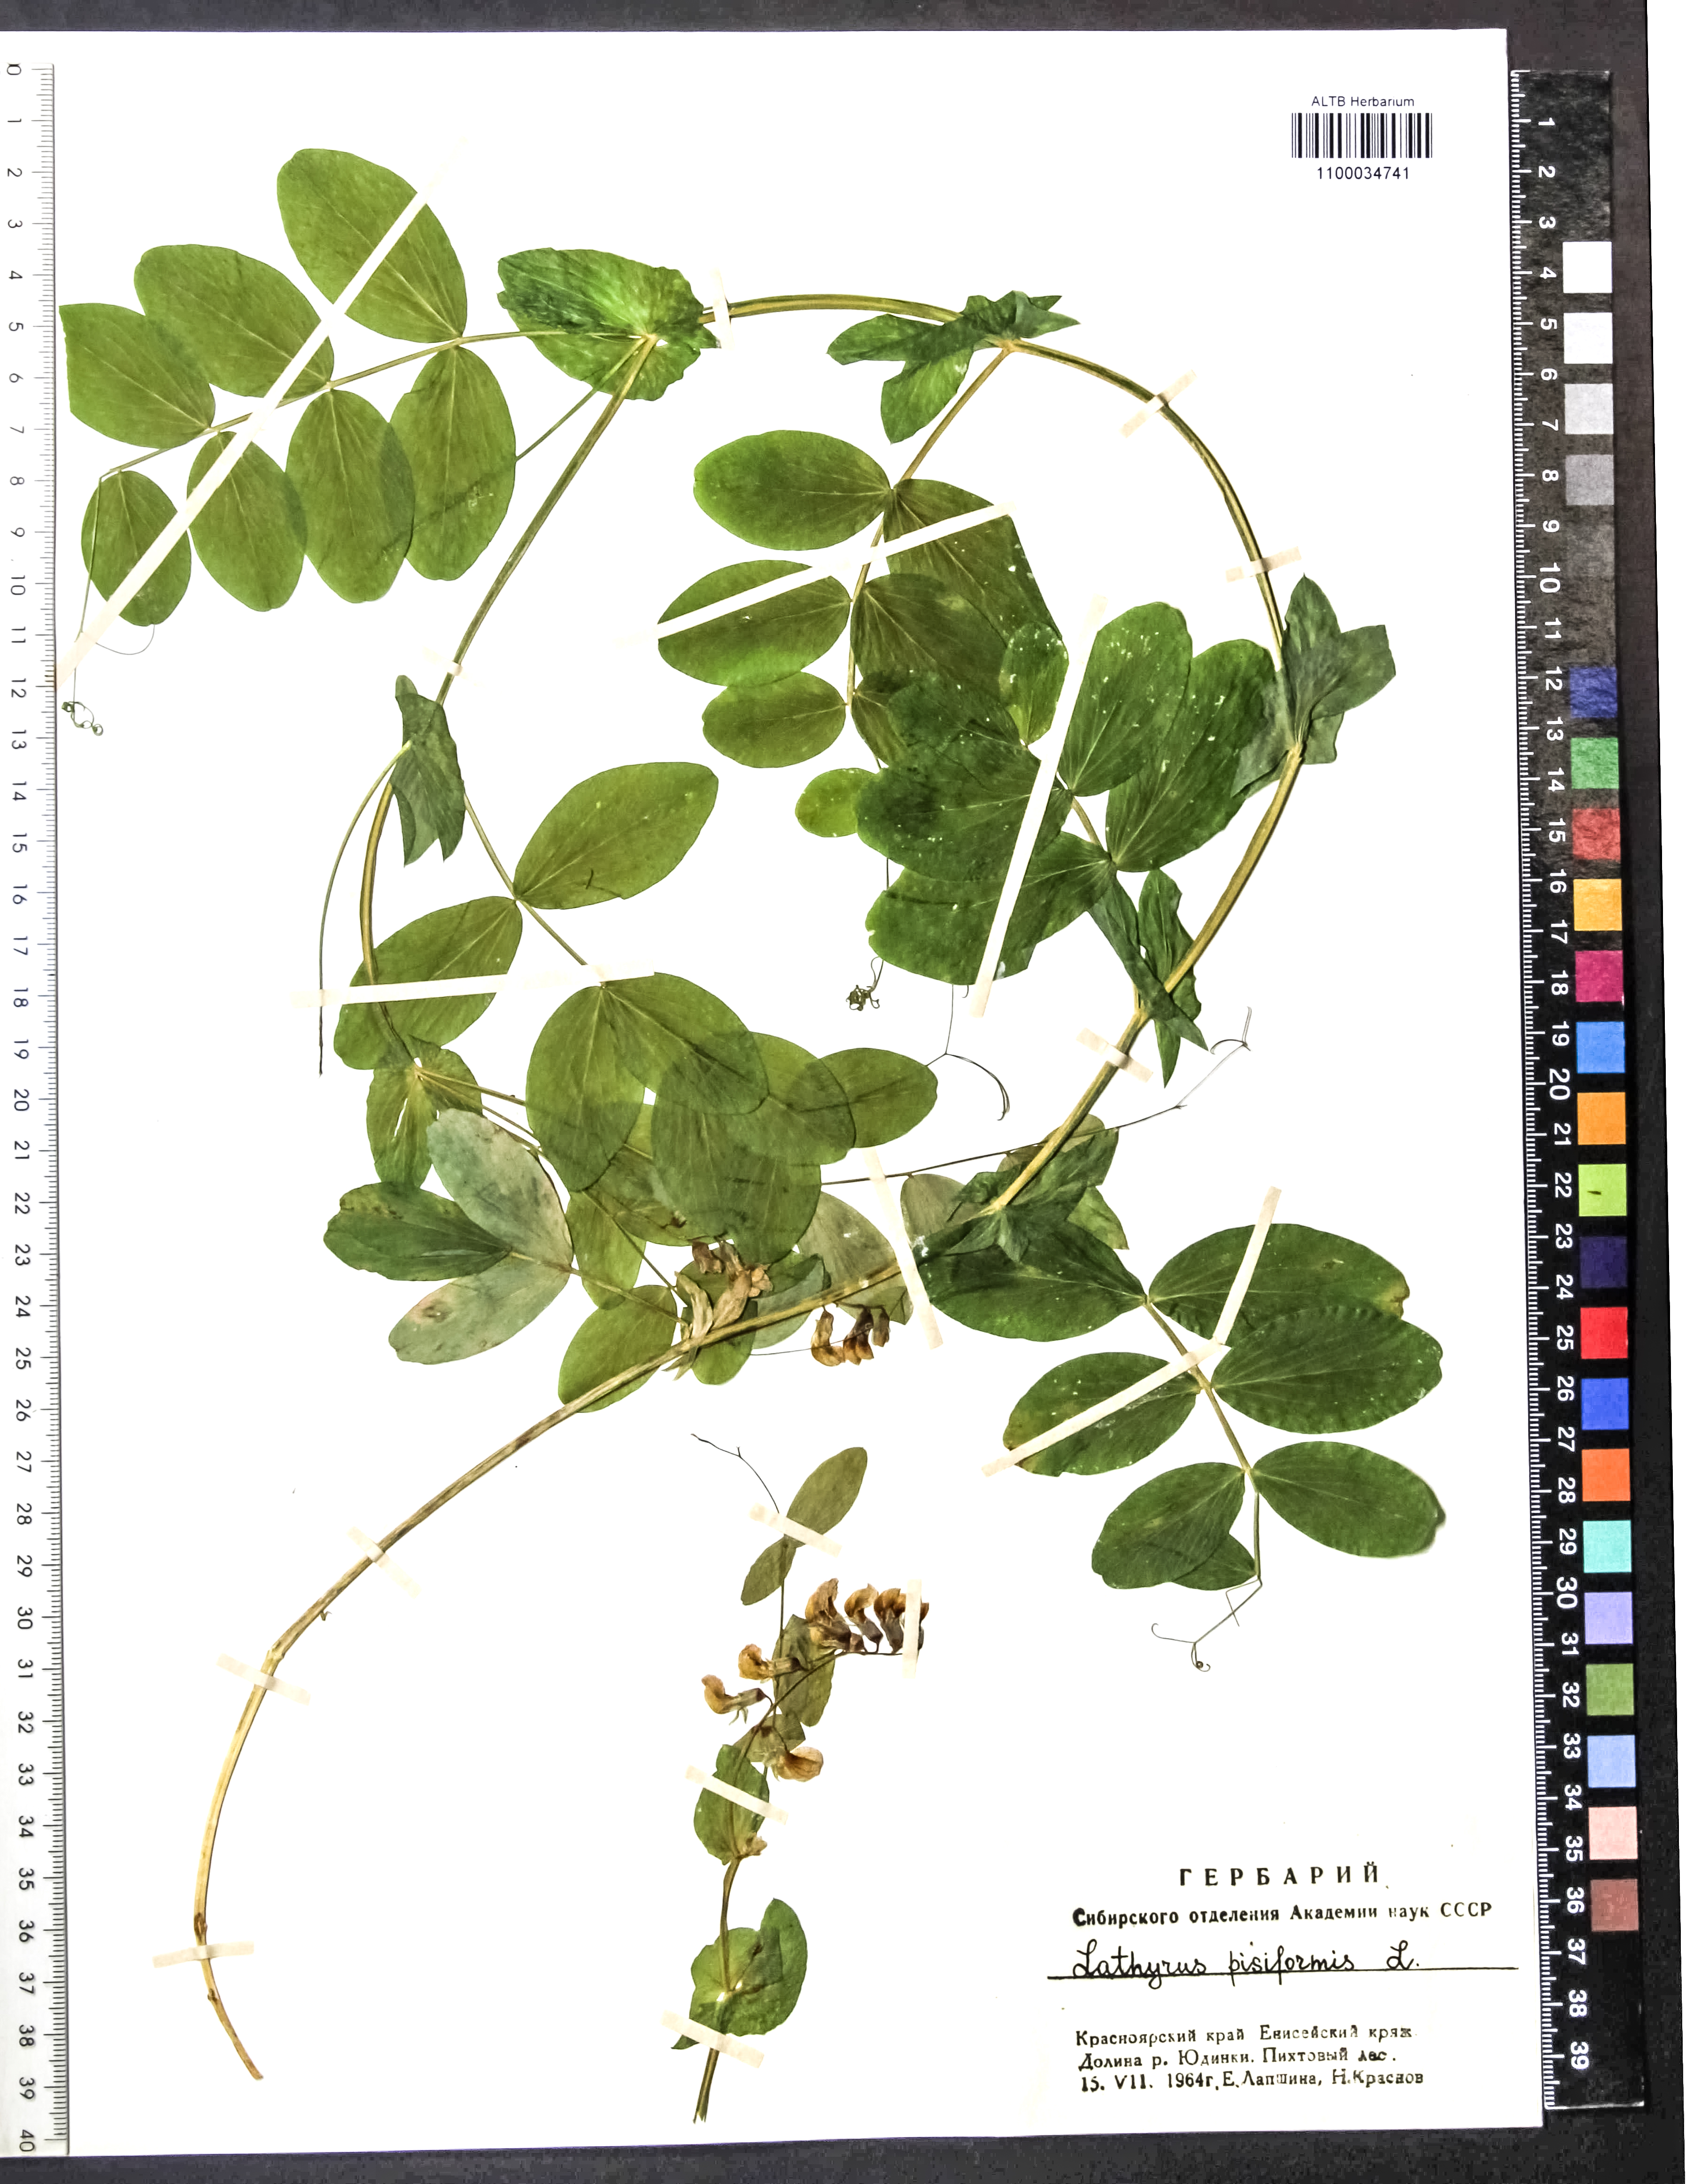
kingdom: Plantae
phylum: Tracheophyta
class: Magnoliopsida
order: Fabales
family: Fabaceae
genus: Lathyrus
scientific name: Lathyrus pisiformis
